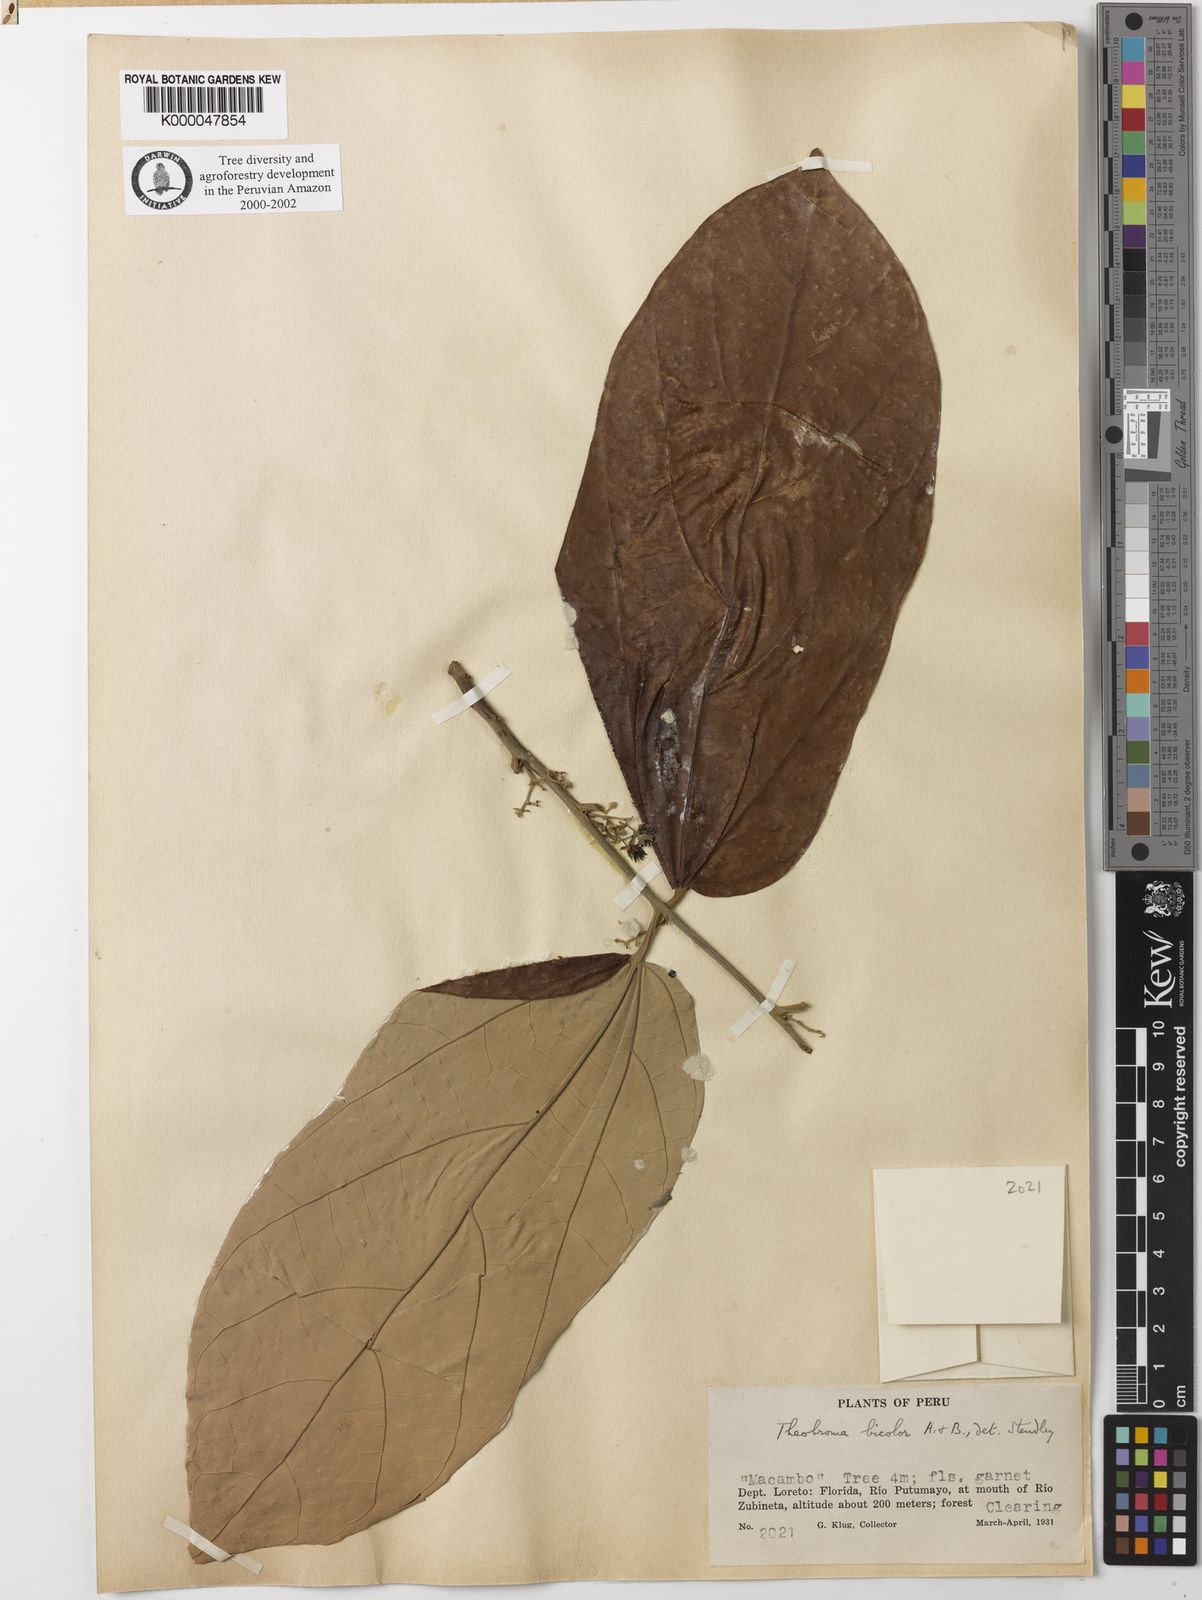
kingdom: Plantae
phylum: Tracheophyta
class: Magnoliopsida
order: Malvales
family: Malvaceae
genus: Theobroma
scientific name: Theobroma bicolor
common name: Macambo tree
